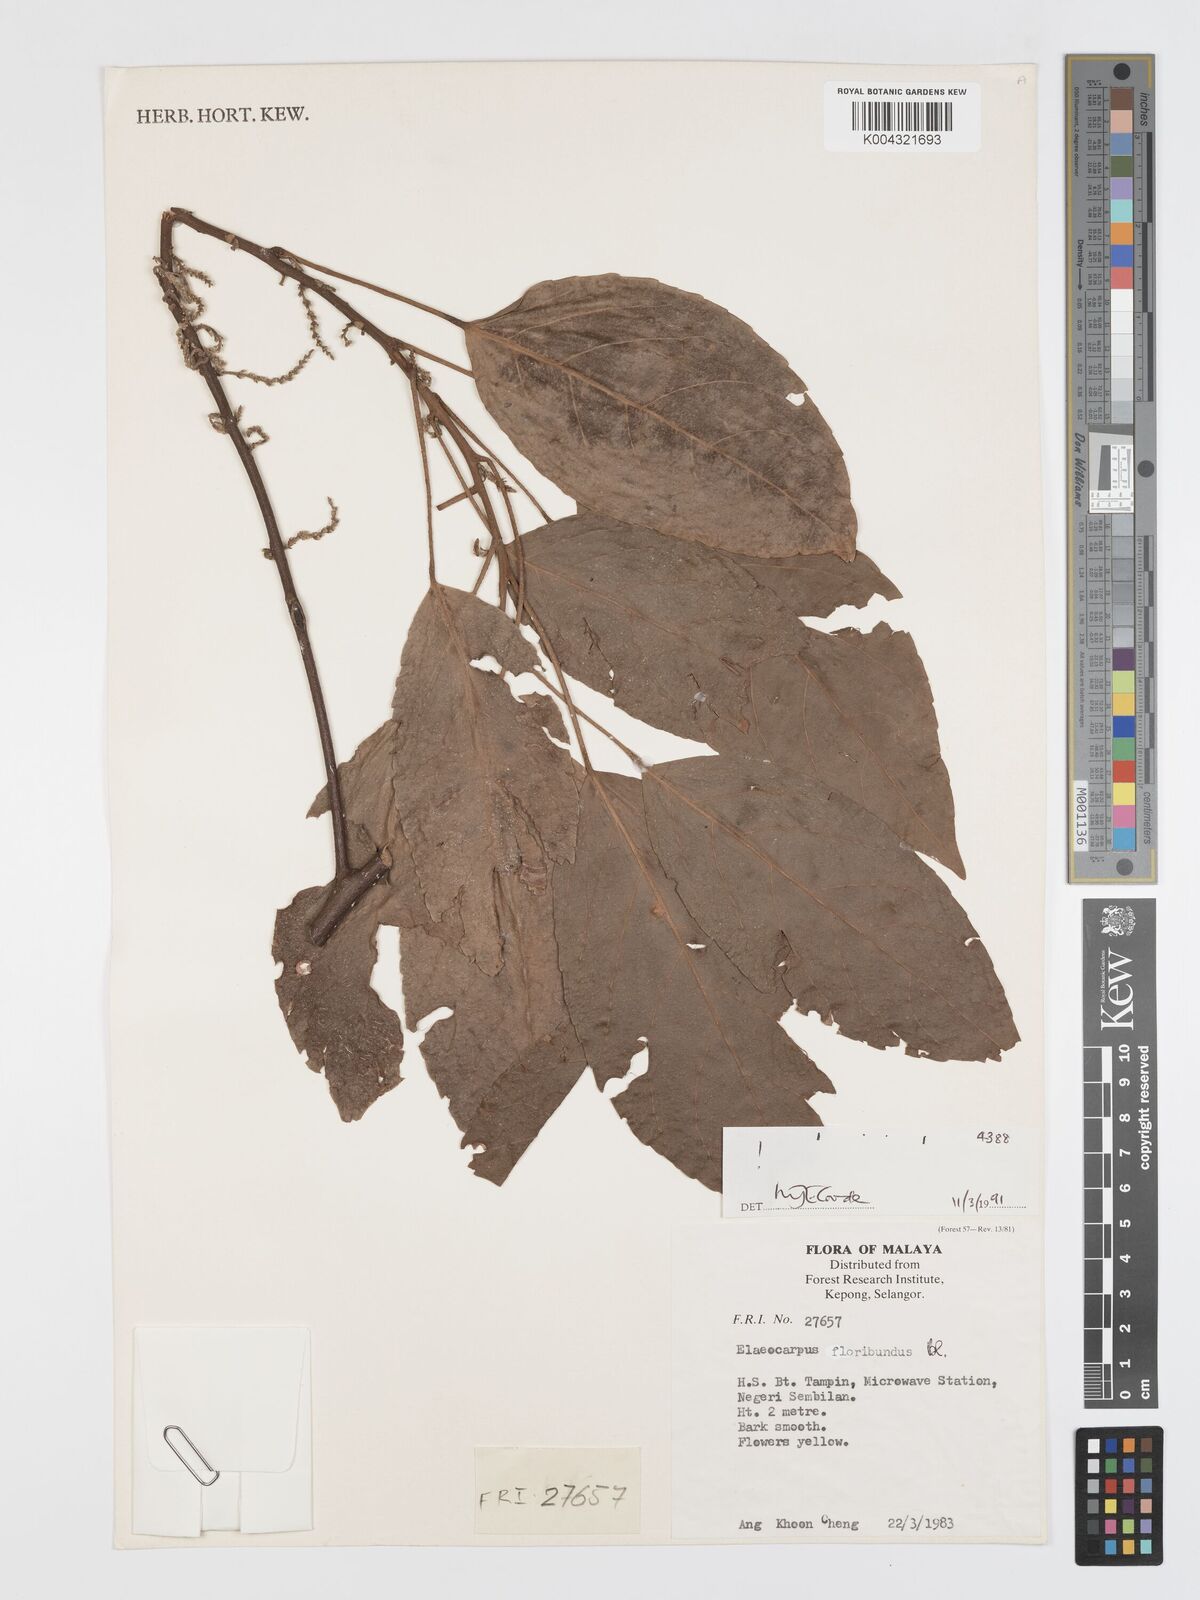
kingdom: Plantae
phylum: Tracheophyta
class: Magnoliopsida
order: Oxalidales
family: Elaeocarpaceae
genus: Elaeocarpus
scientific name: Elaeocarpus floribundus
